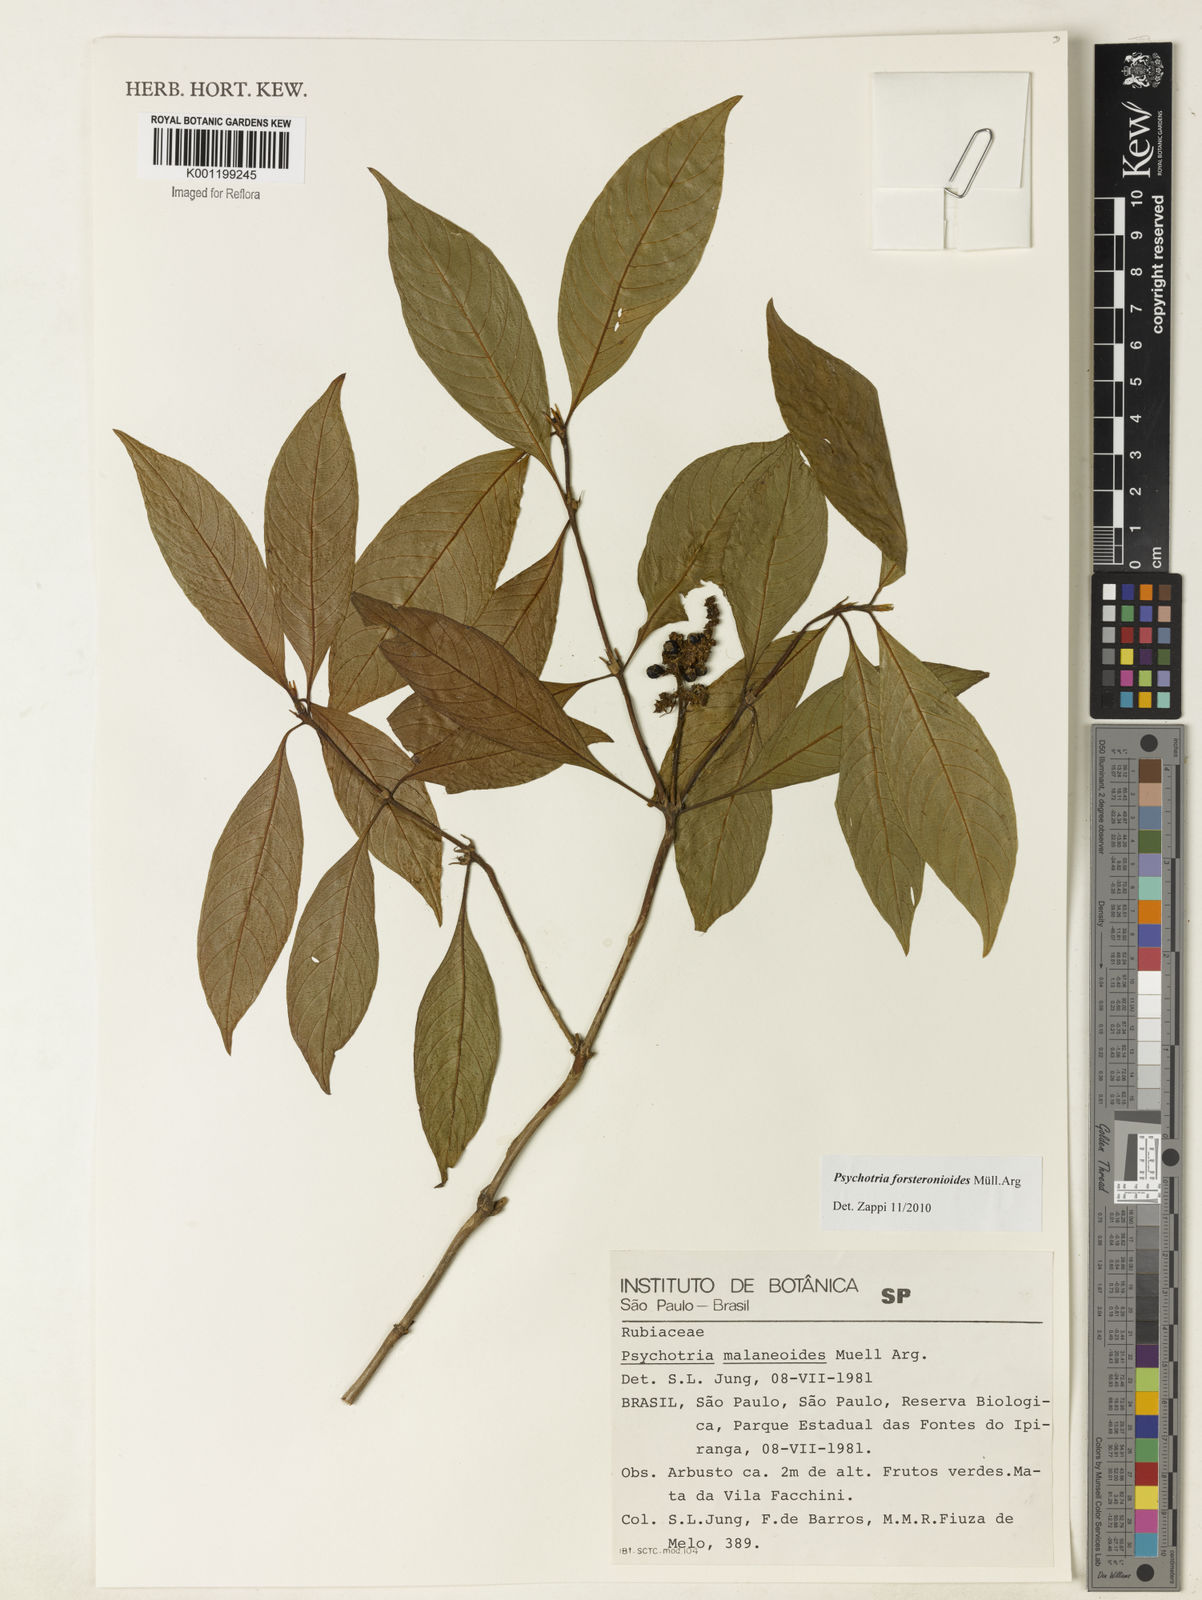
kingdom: Plantae
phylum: Tracheophyta
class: Magnoliopsida
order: Gentianales
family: Rubiaceae
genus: Psychotria
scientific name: Psychotria
